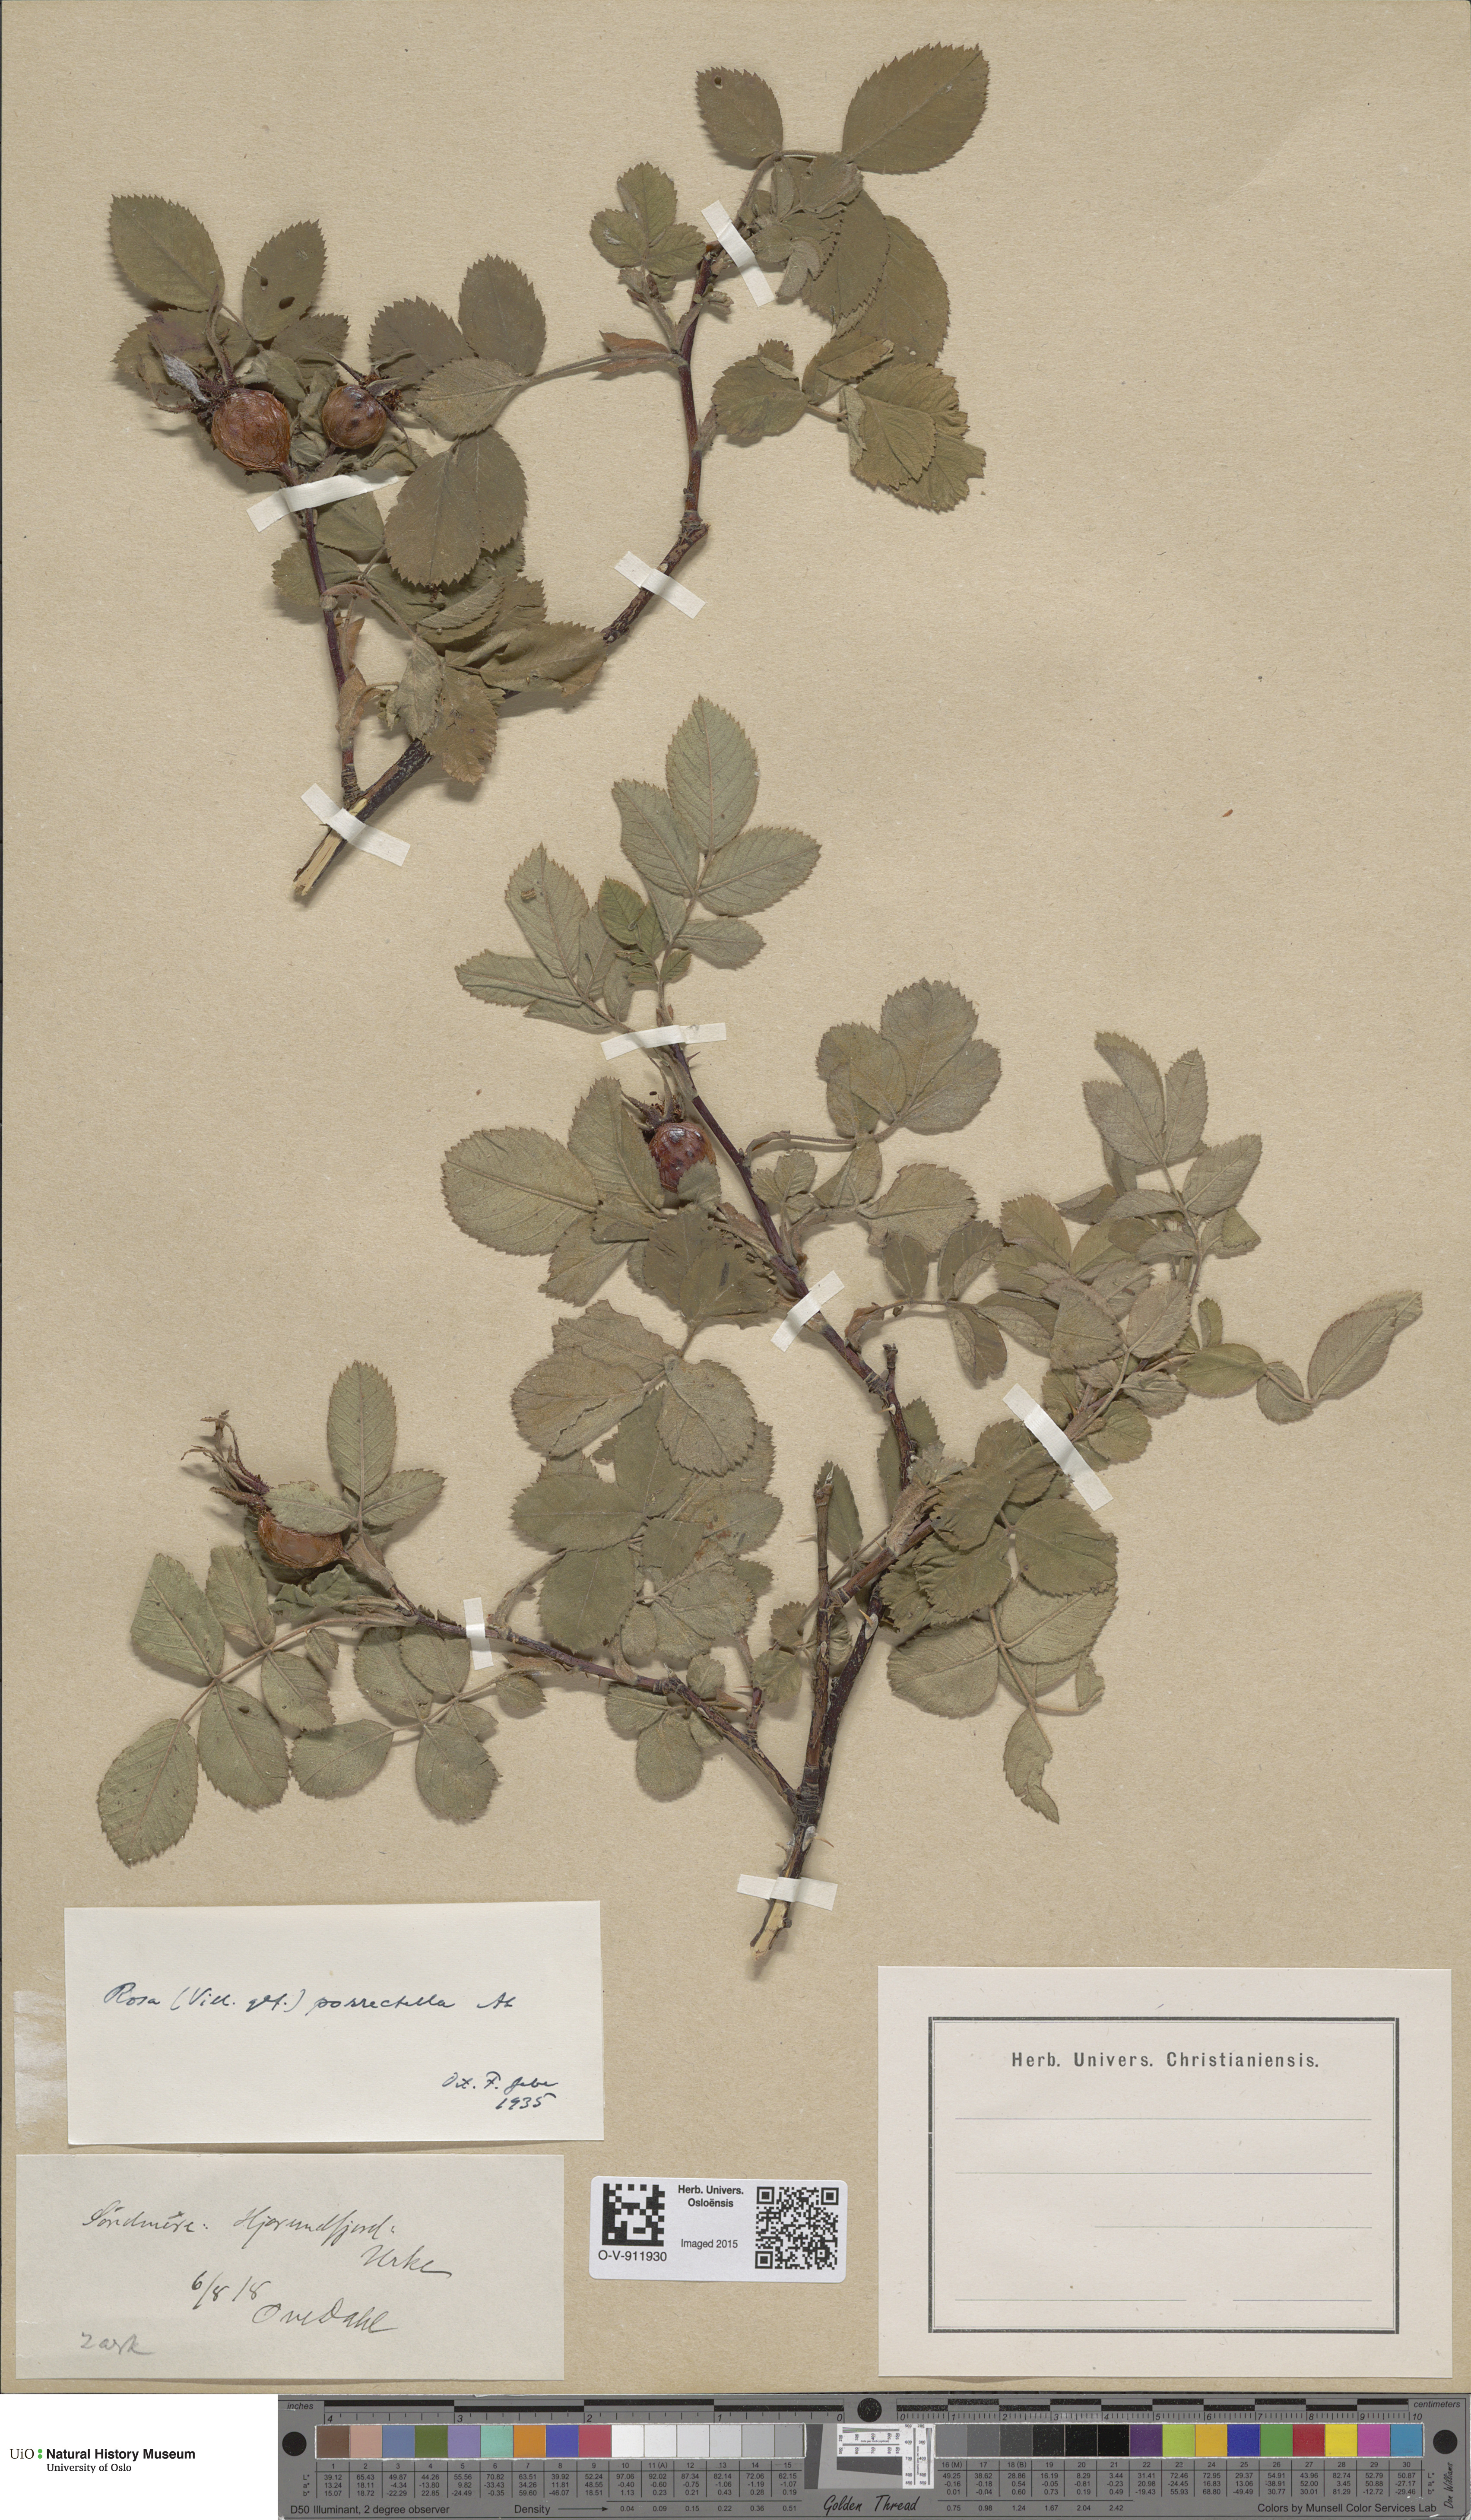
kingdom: Plantae
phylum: Tracheophyta
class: Magnoliopsida
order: Rosales
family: Rosaceae
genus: Rosa
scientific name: Rosa mollis
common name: Rose
